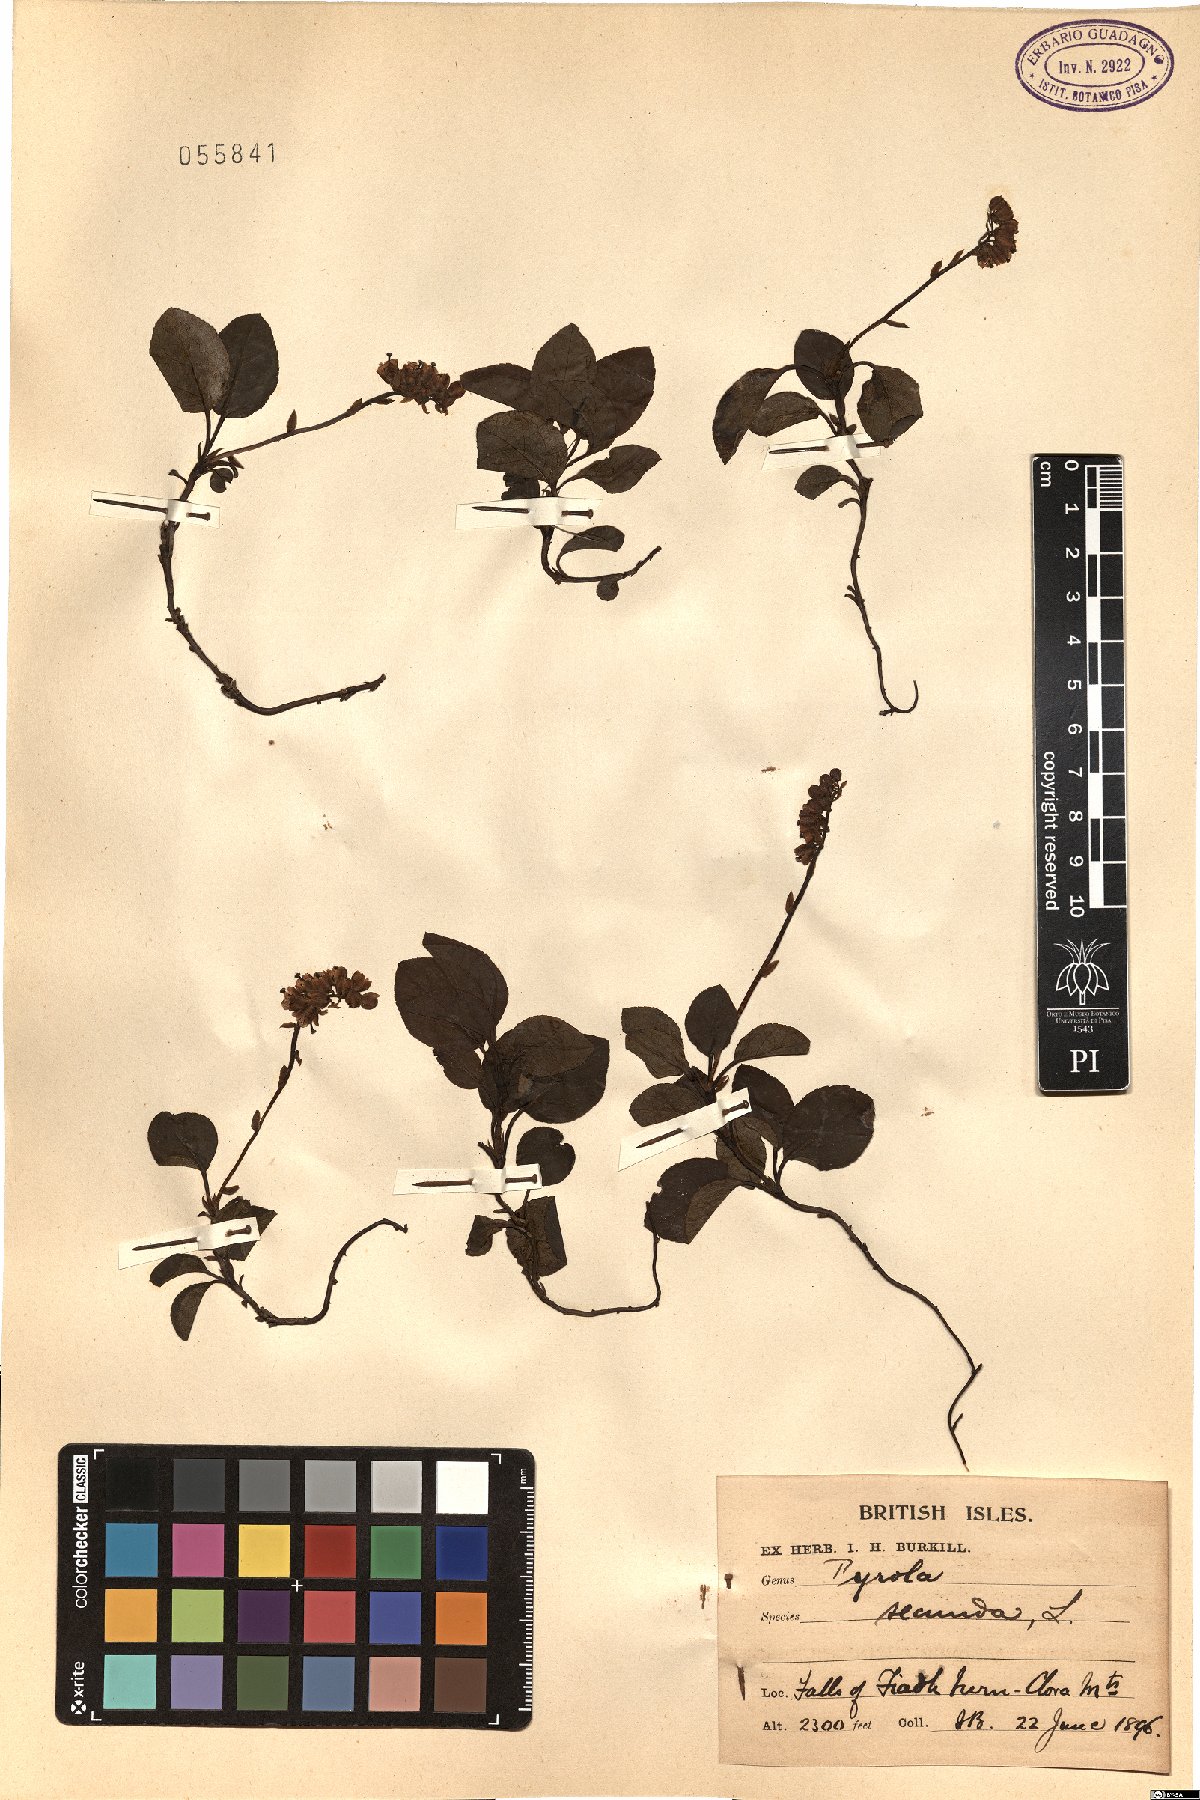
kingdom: Plantae
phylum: Tracheophyta
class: Magnoliopsida
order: Ericales
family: Ericaceae
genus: Orthilia
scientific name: Orthilia secunda
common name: One-sided orthilia
